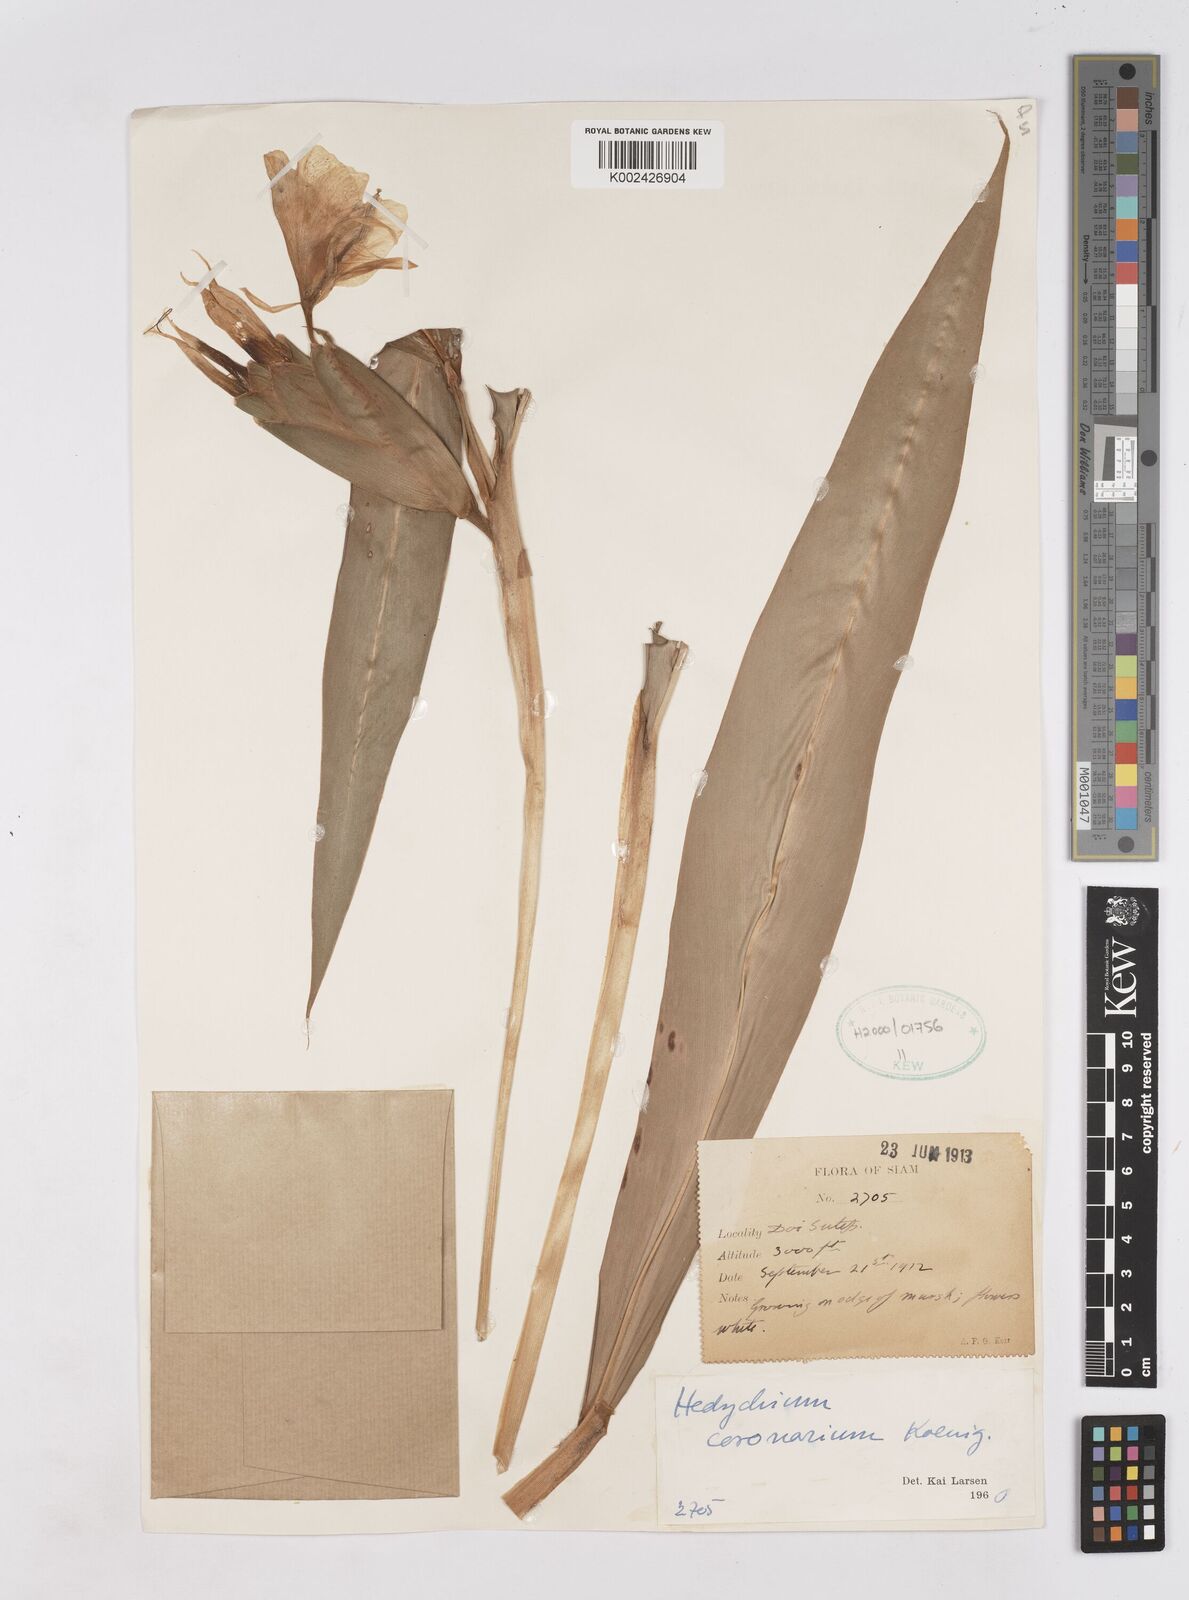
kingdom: Plantae
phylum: Tracheophyta
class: Liliopsida
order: Zingiberales
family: Zingiberaceae
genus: Hedychium
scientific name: Hedychium coronarium
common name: White garland-lily
